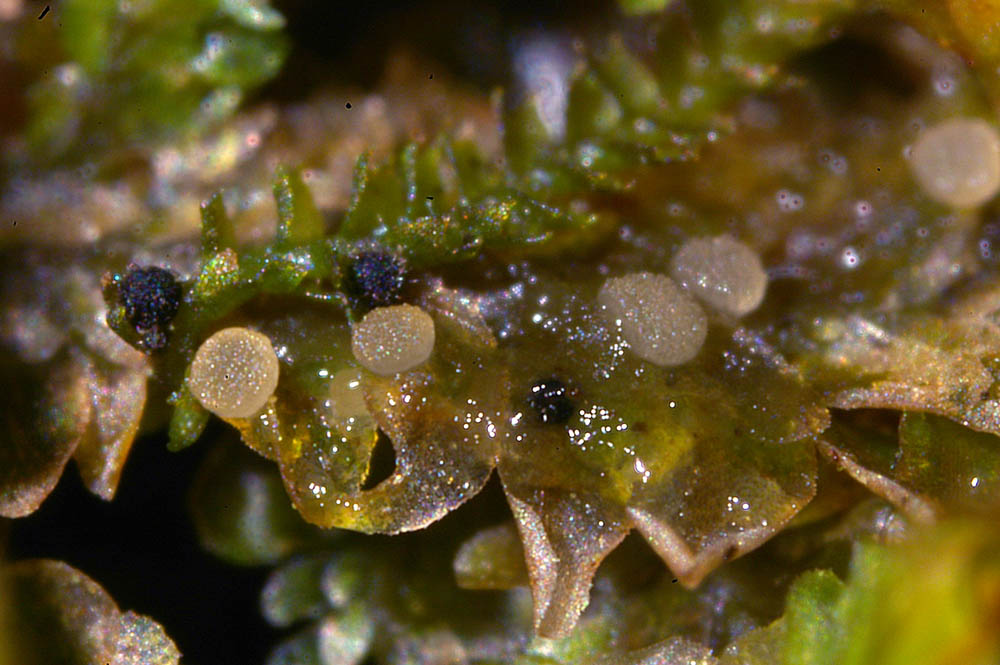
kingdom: Fungi
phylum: Ascomycota
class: Leotiomycetes
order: Leotiales
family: Mniaeciaceae
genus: Mniaecia
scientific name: Mniaecia nivea
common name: Calycina nivea
